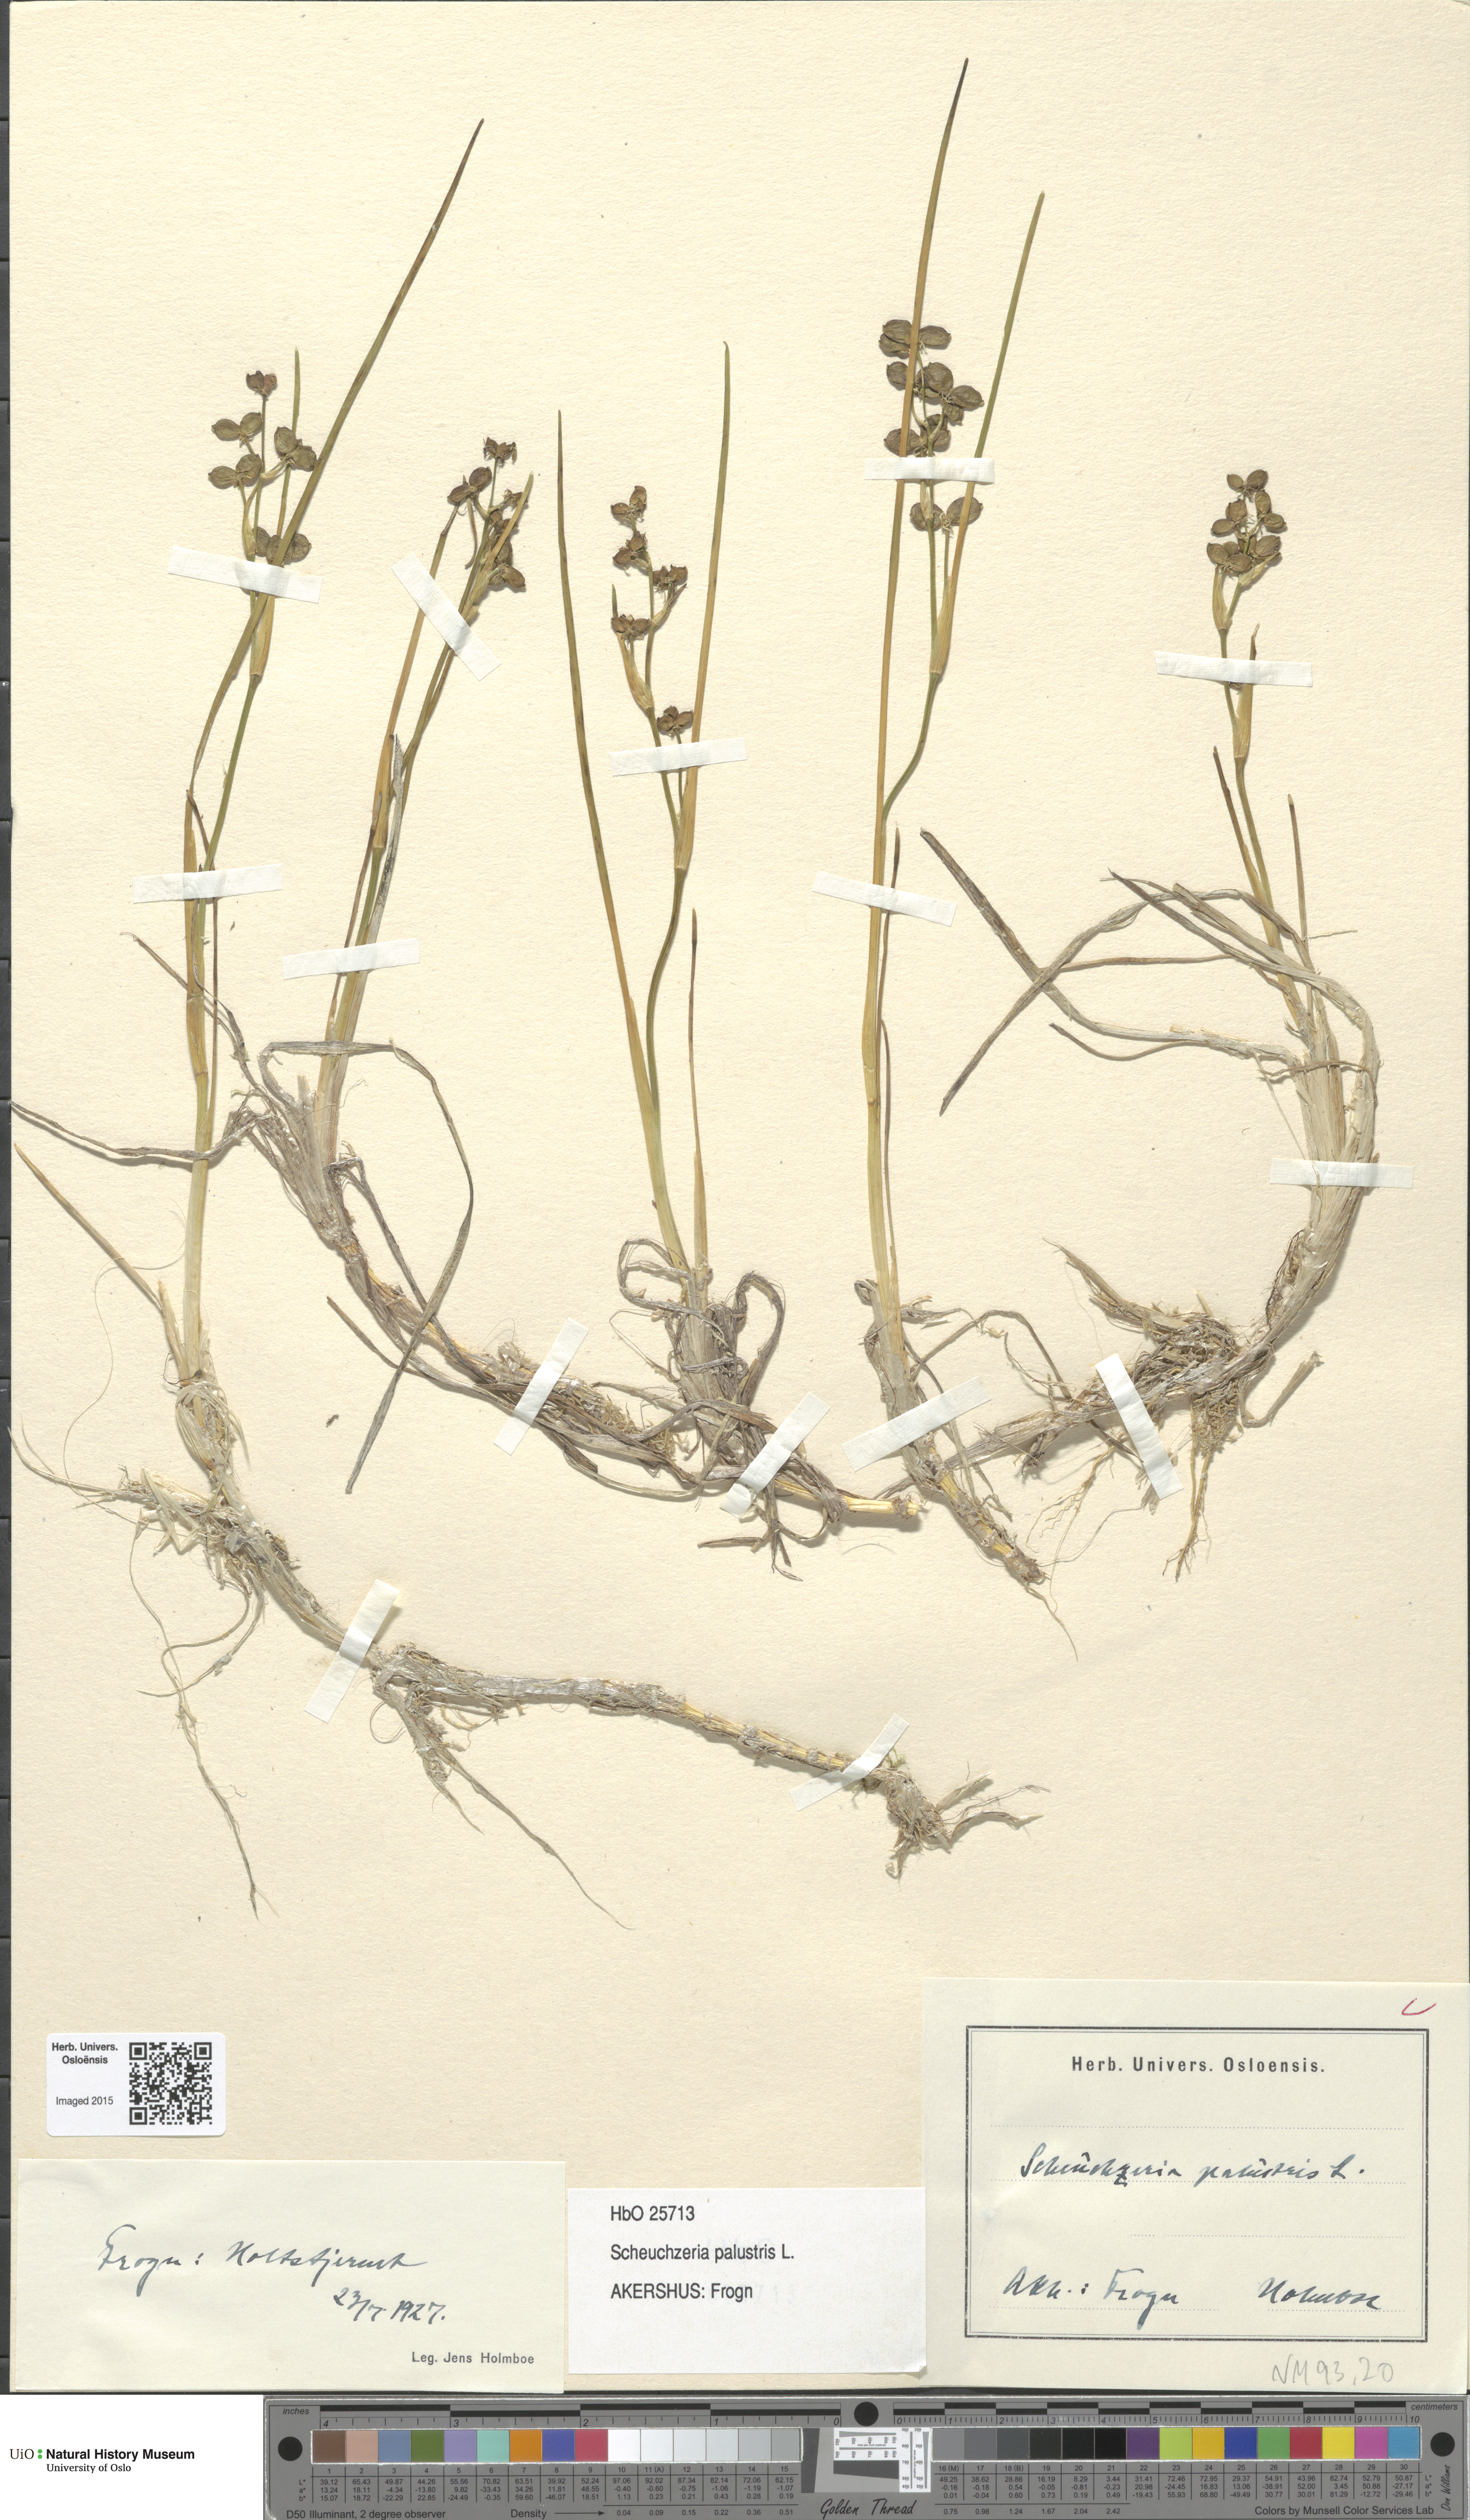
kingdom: Plantae
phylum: Tracheophyta
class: Liliopsida
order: Alismatales
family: Scheuchzeriaceae
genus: Scheuchzeria
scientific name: Scheuchzeria palustris
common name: Rannoch-rush
